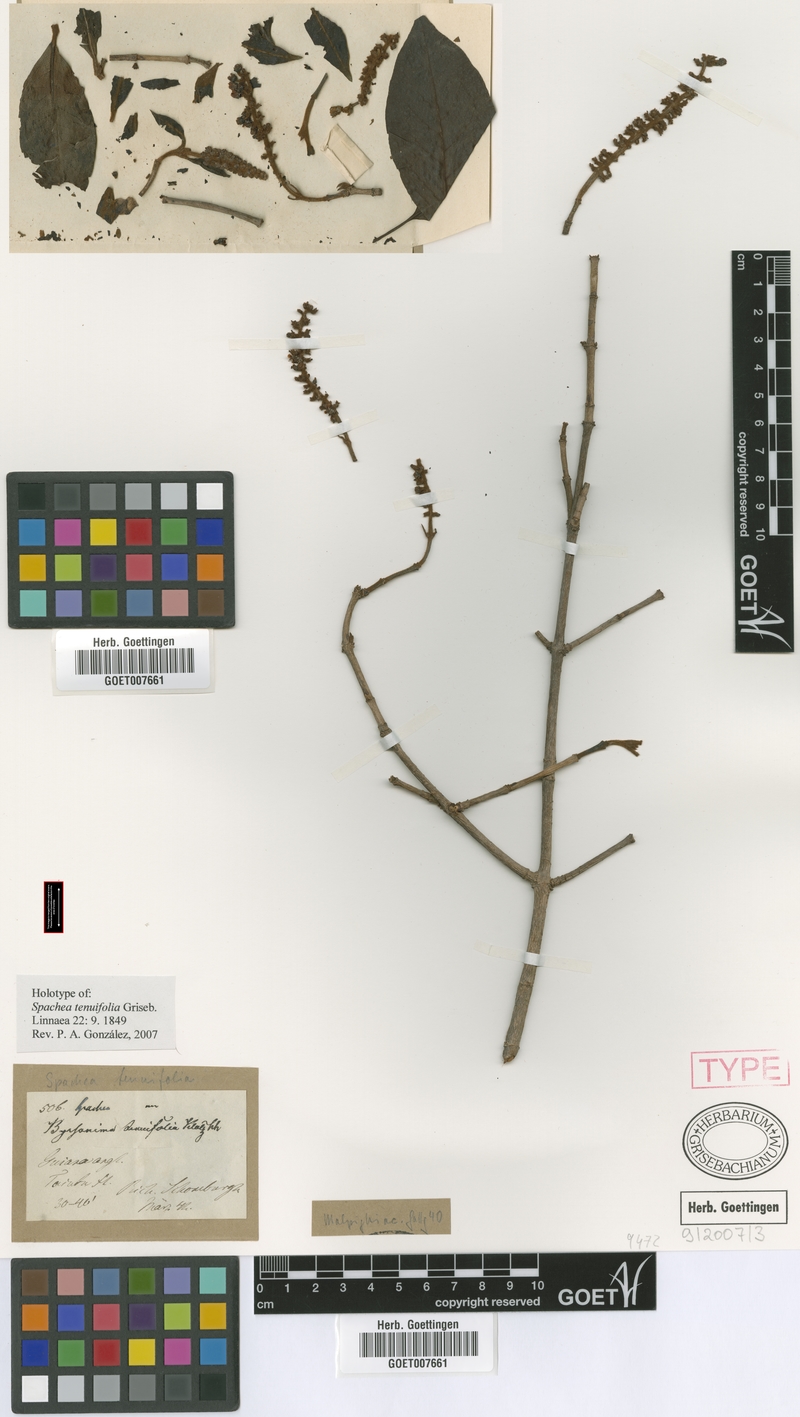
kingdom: Plantae
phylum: Tracheophyta
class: Magnoliopsida
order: Malpighiales
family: Malpighiaceae
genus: Spachea
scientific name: Spachea elegans
